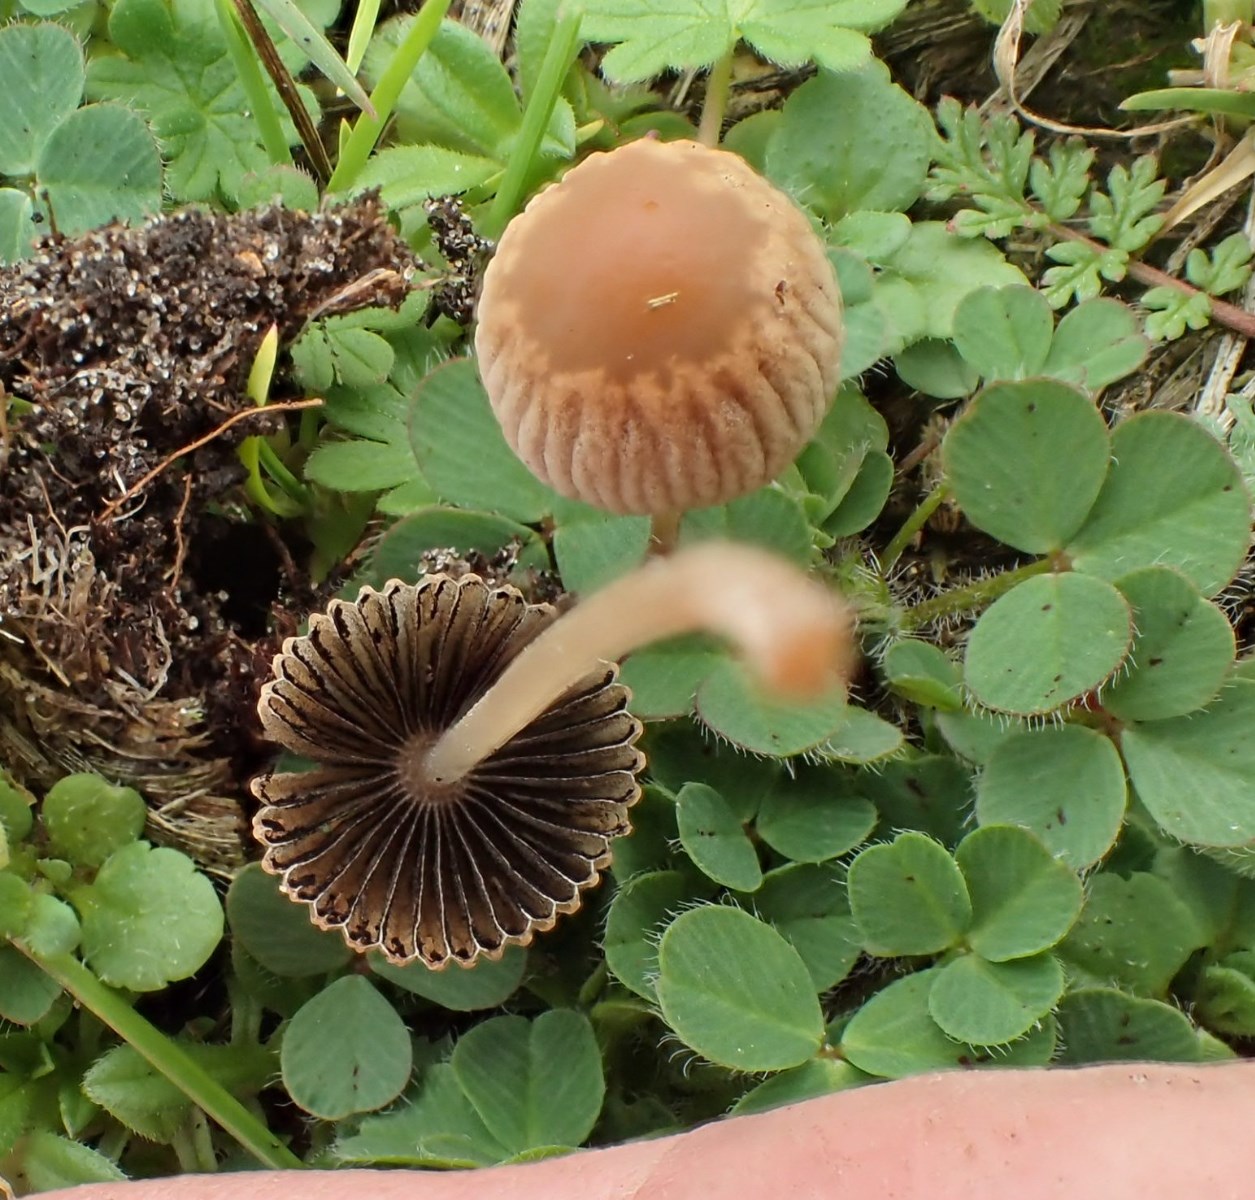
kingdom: Fungi
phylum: Basidiomycota
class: Agaricomycetes
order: Agaricales
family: Psathyrellaceae
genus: Parasola
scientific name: Parasola
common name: hjulhat
